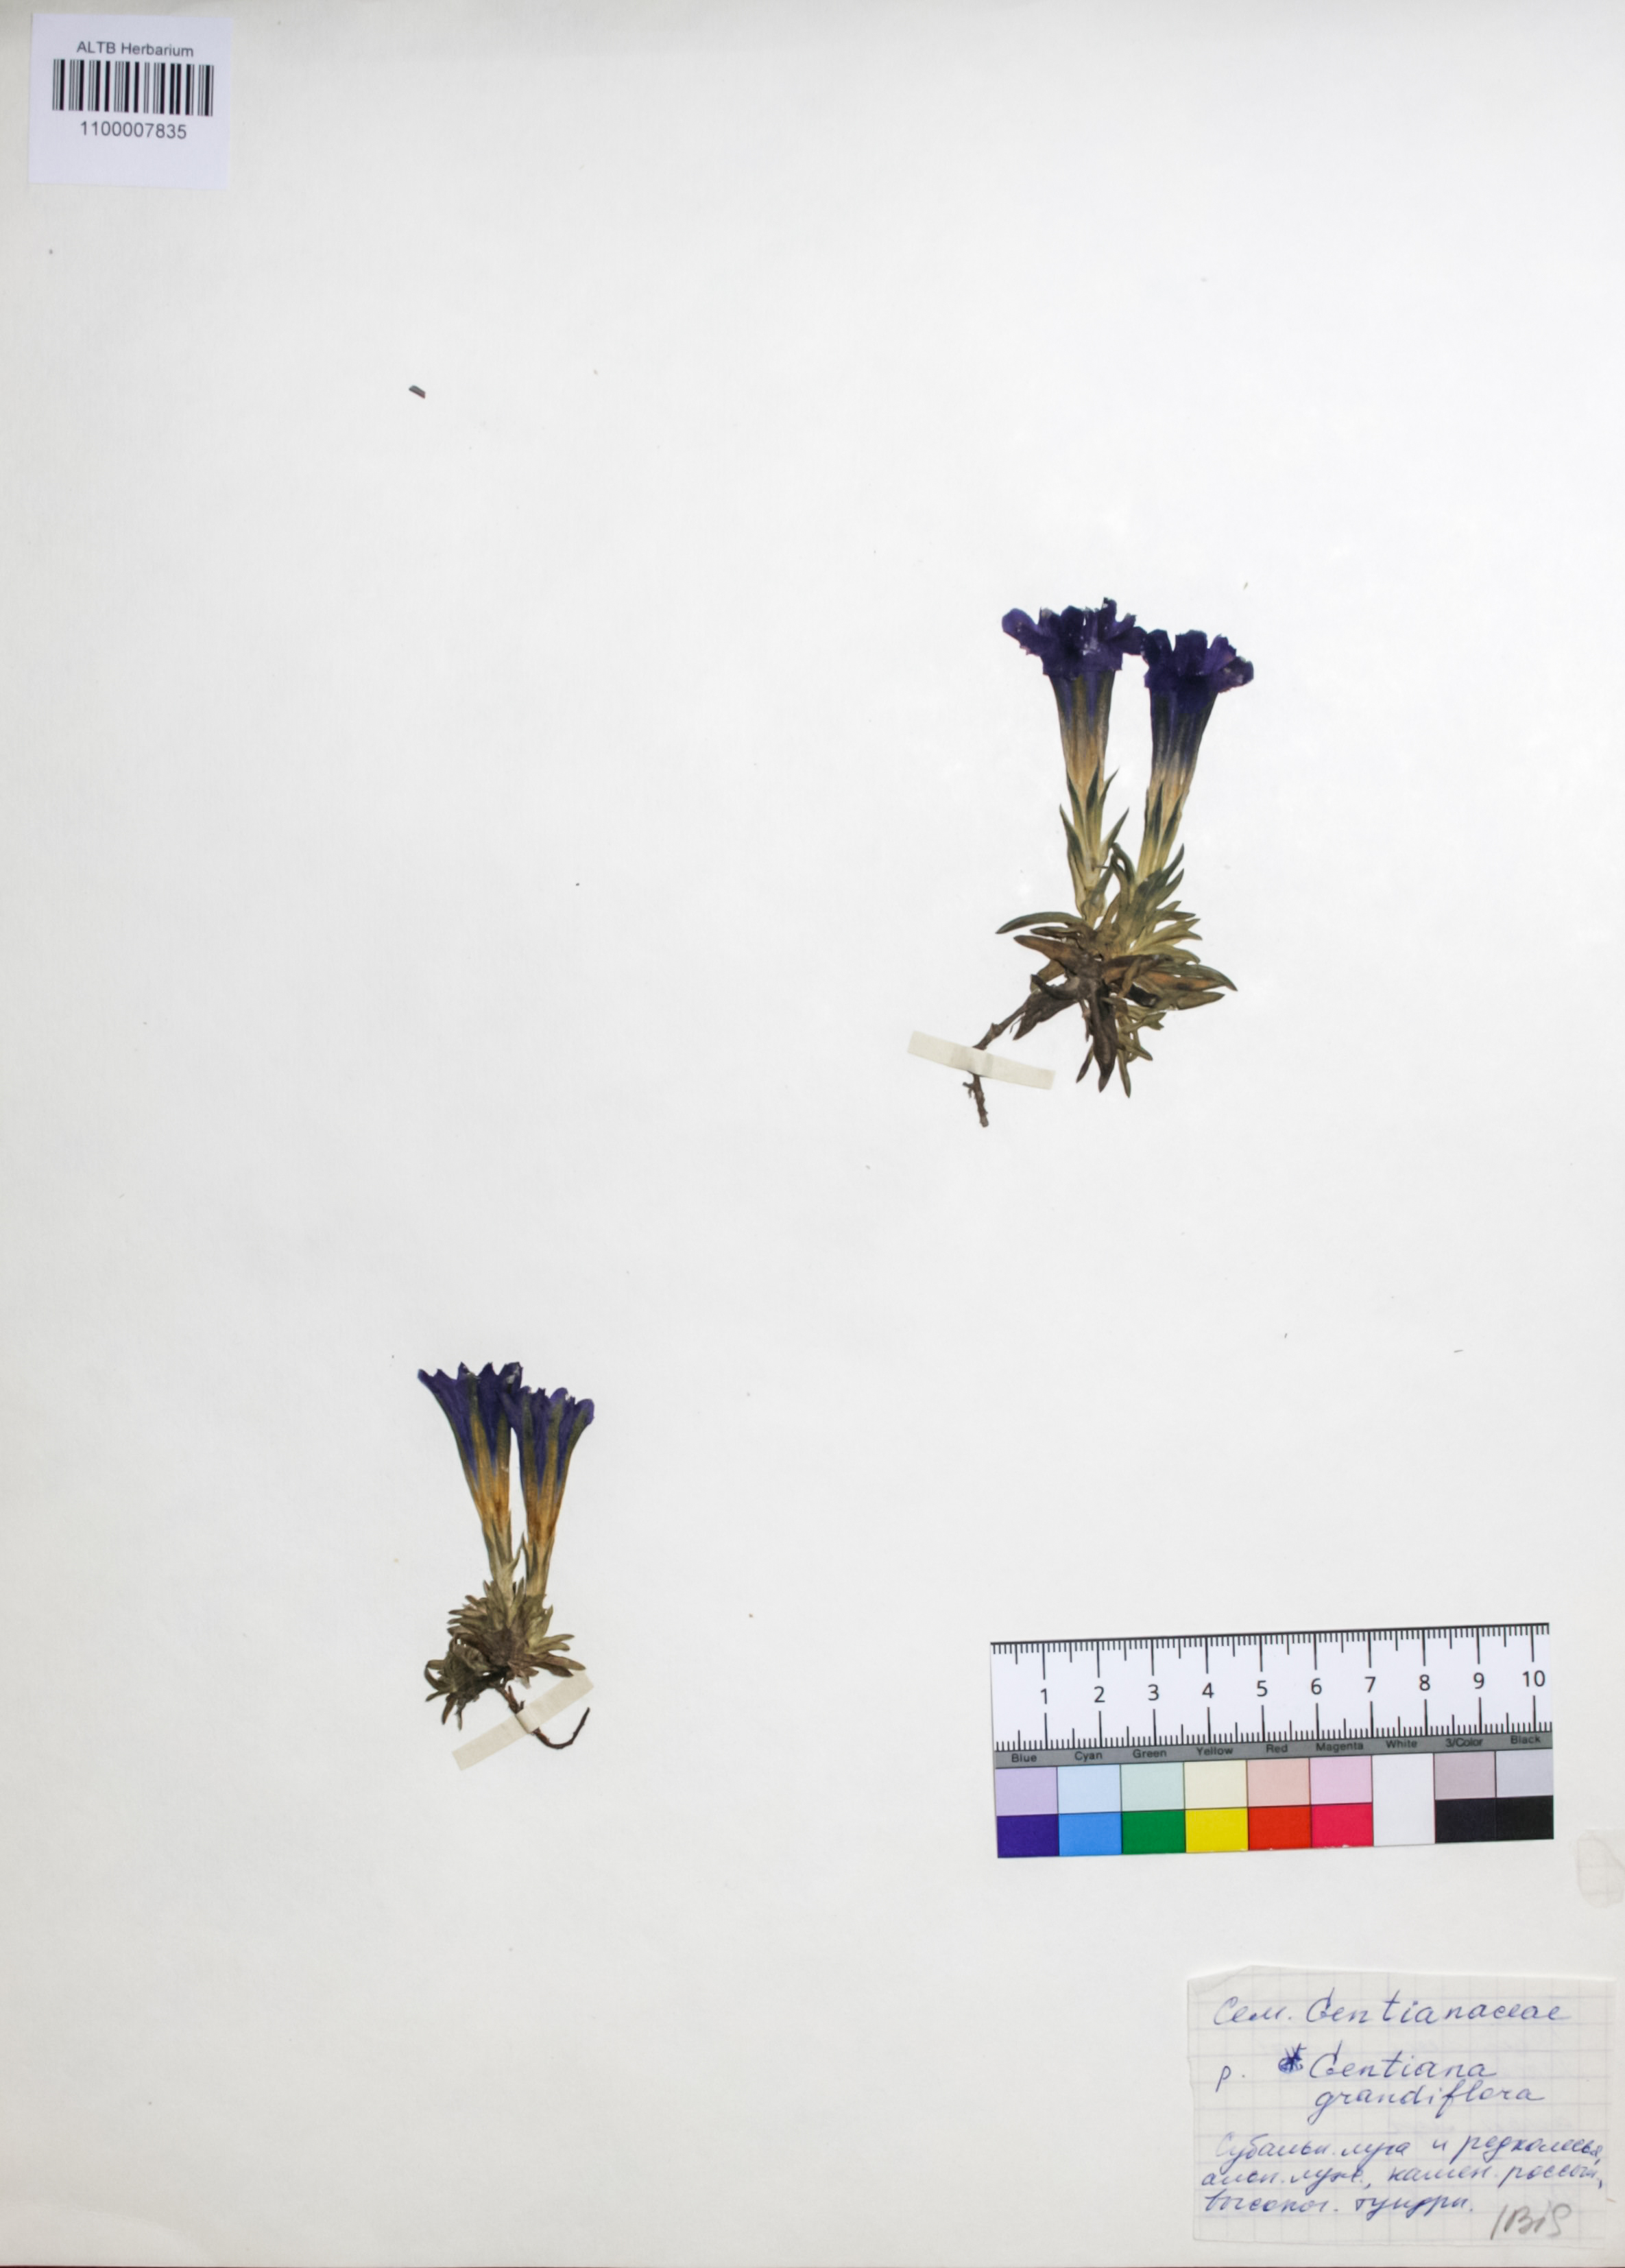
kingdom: Plantae
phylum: Tracheophyta
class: Magnoliopsida
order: Gentianales
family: Gentianaceae
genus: Gentiana
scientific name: Gentiana grandiflora
